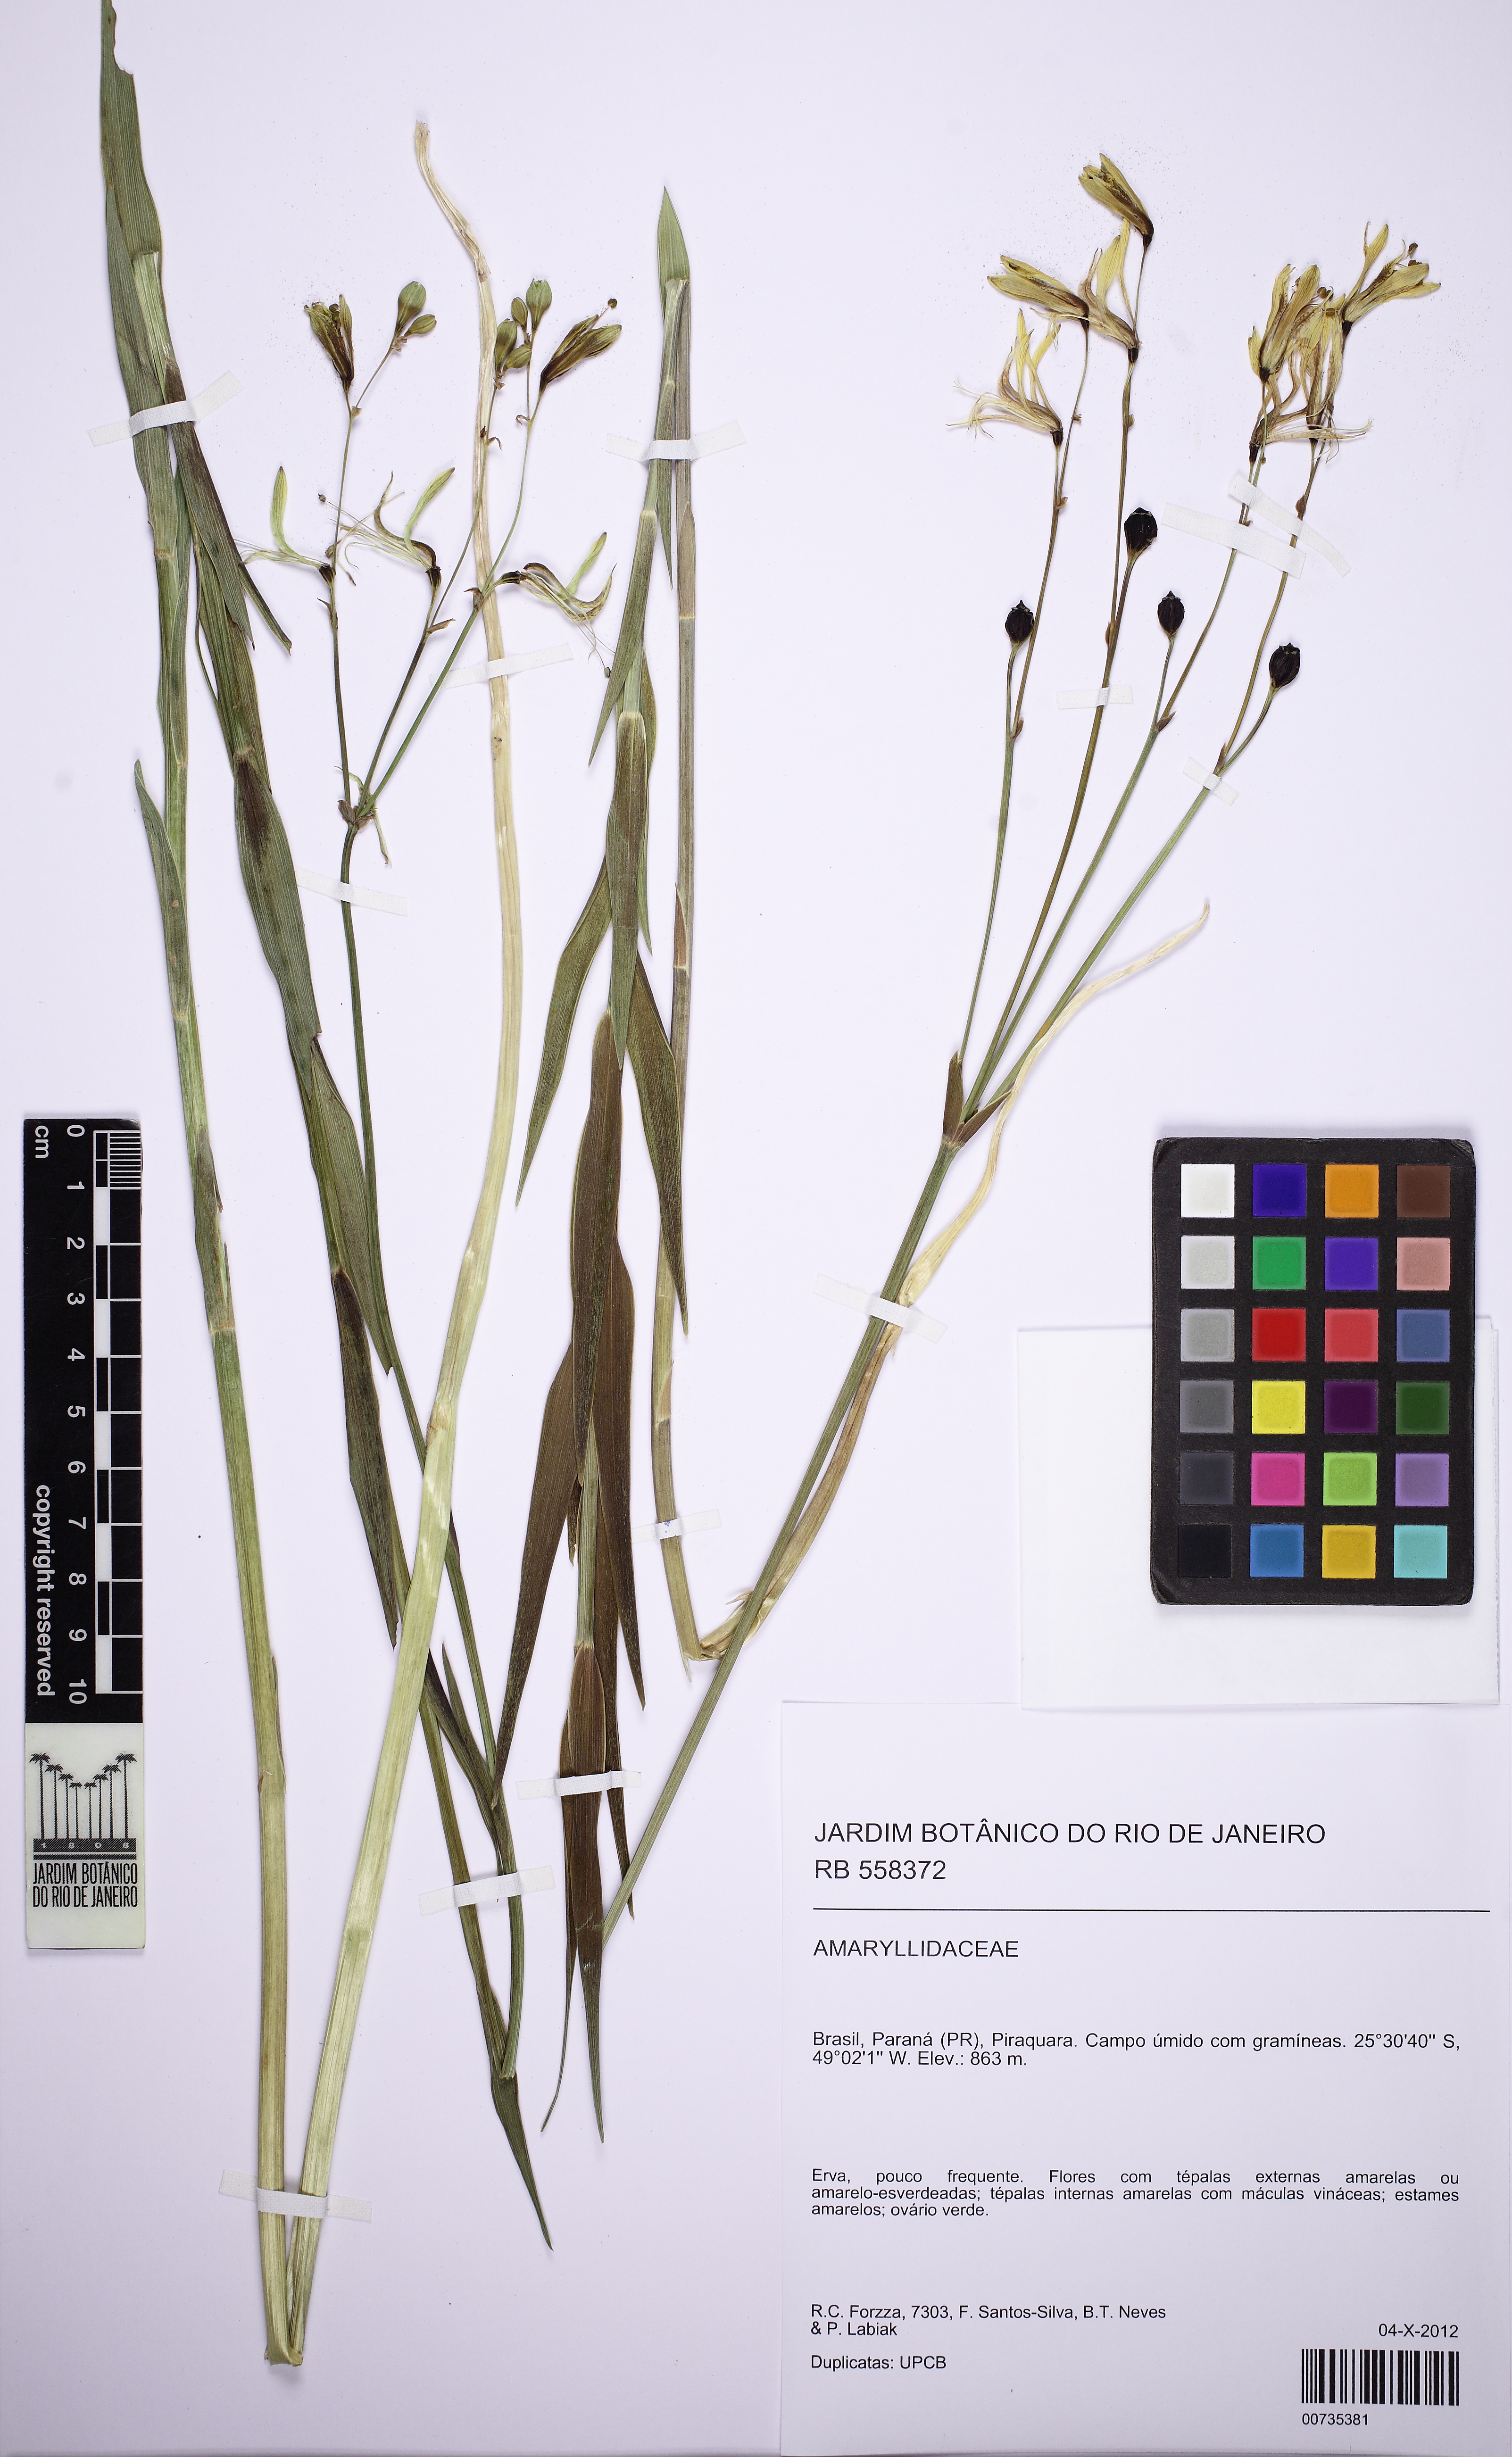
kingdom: Plantae
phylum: Tracheophyta
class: Liliopsida
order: Liliales
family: Alstroemeriaceae
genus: Alstroemeria
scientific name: Alstroemeria apertiflora
